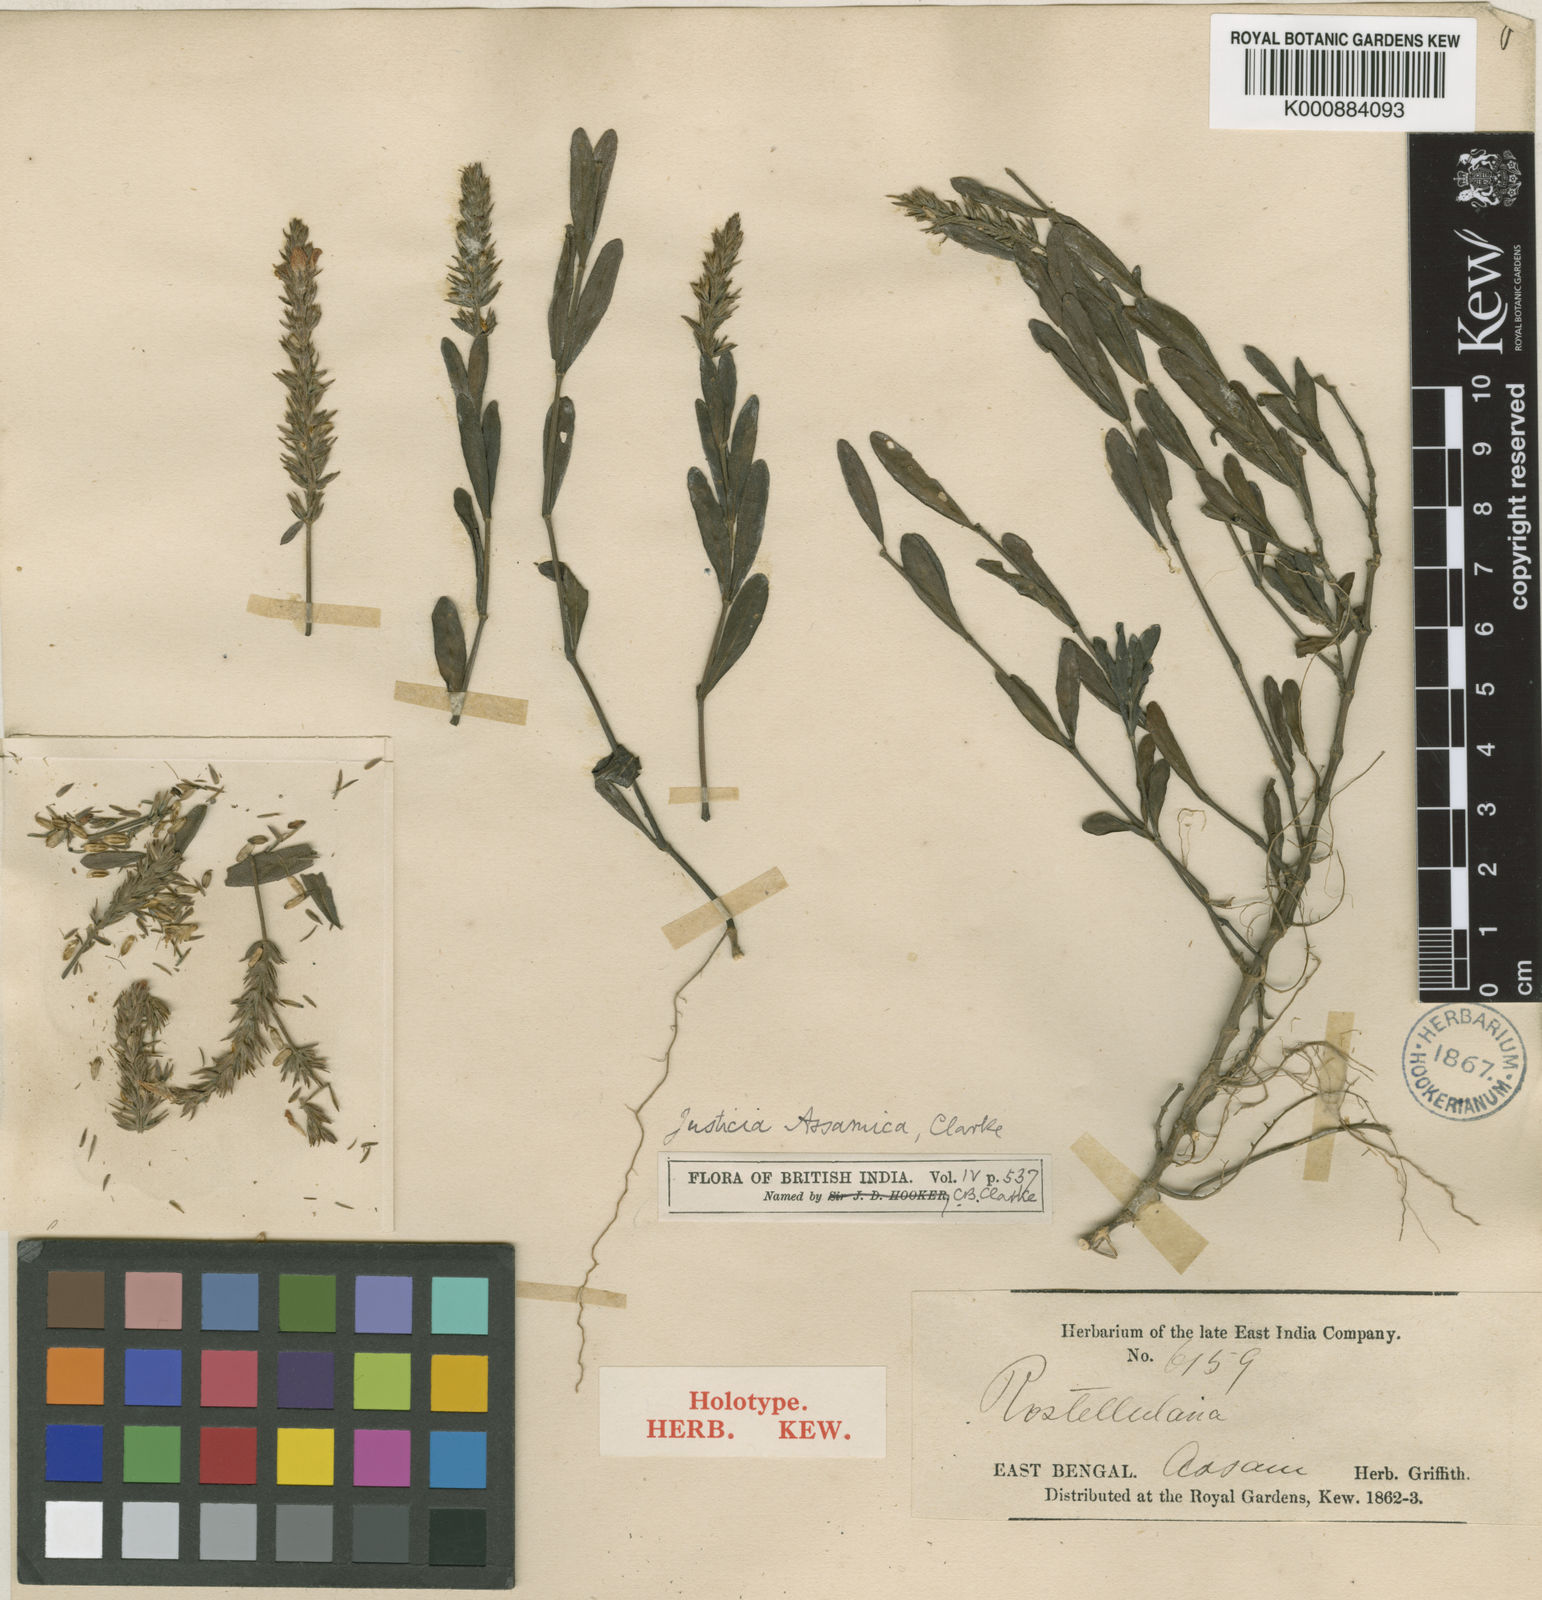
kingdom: Plantae
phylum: Tracheophyta
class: Magnoliopsida
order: Lamiales
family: Acanthaceae
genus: Rostellularia
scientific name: Rostellularia assamica
